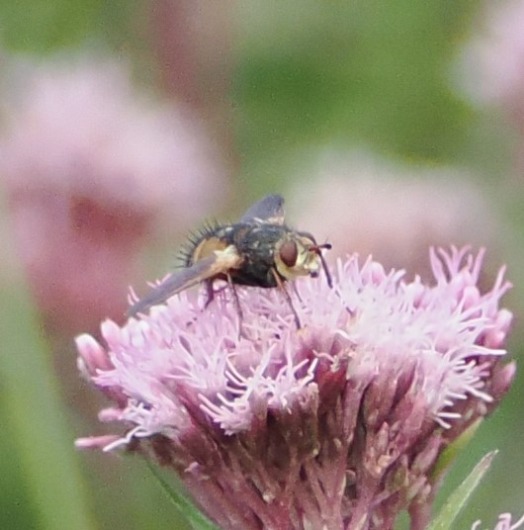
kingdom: Animalia
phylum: Arthropoda
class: Insecta
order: Diptera
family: Tachinidae
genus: Tachina
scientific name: Tachina fera
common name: Mellemfluen oskar
